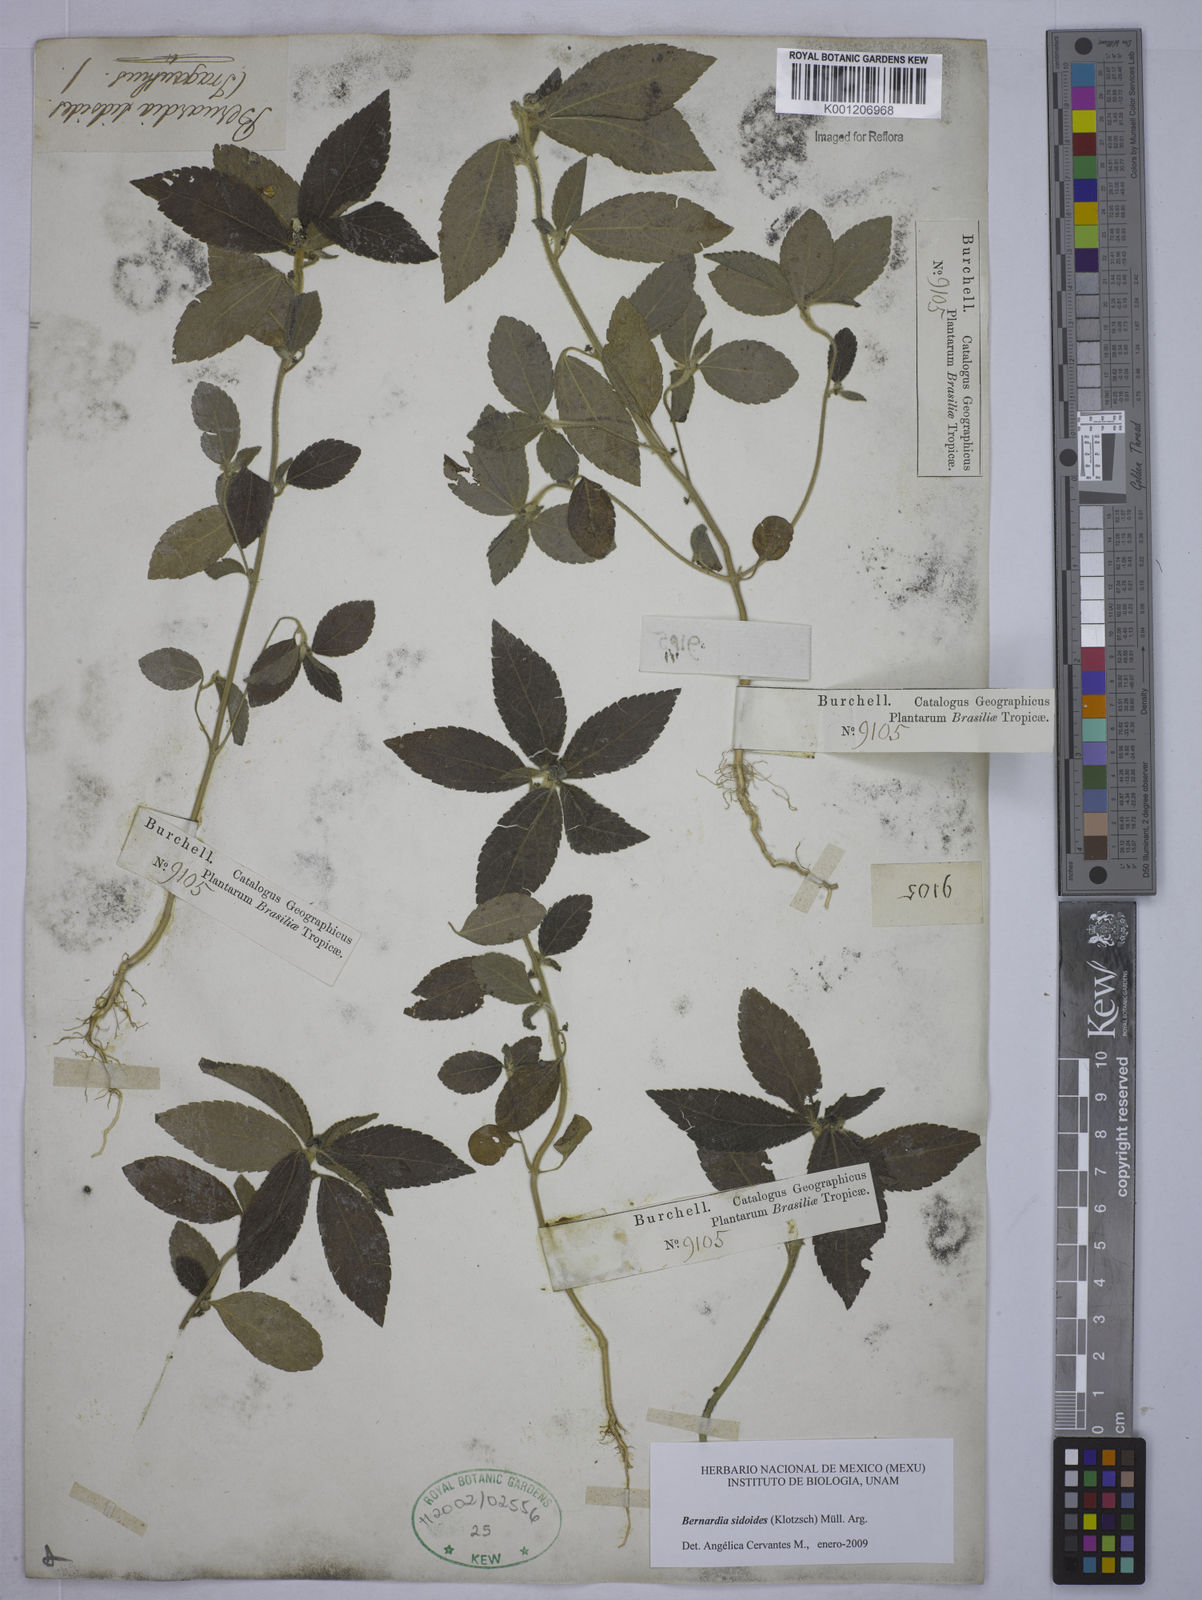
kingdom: Plantae
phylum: Tracheophyta
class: Magnoliopsida
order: Malpighiales
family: Euphorbiaceae
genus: Bernardia
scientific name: Bernardia
